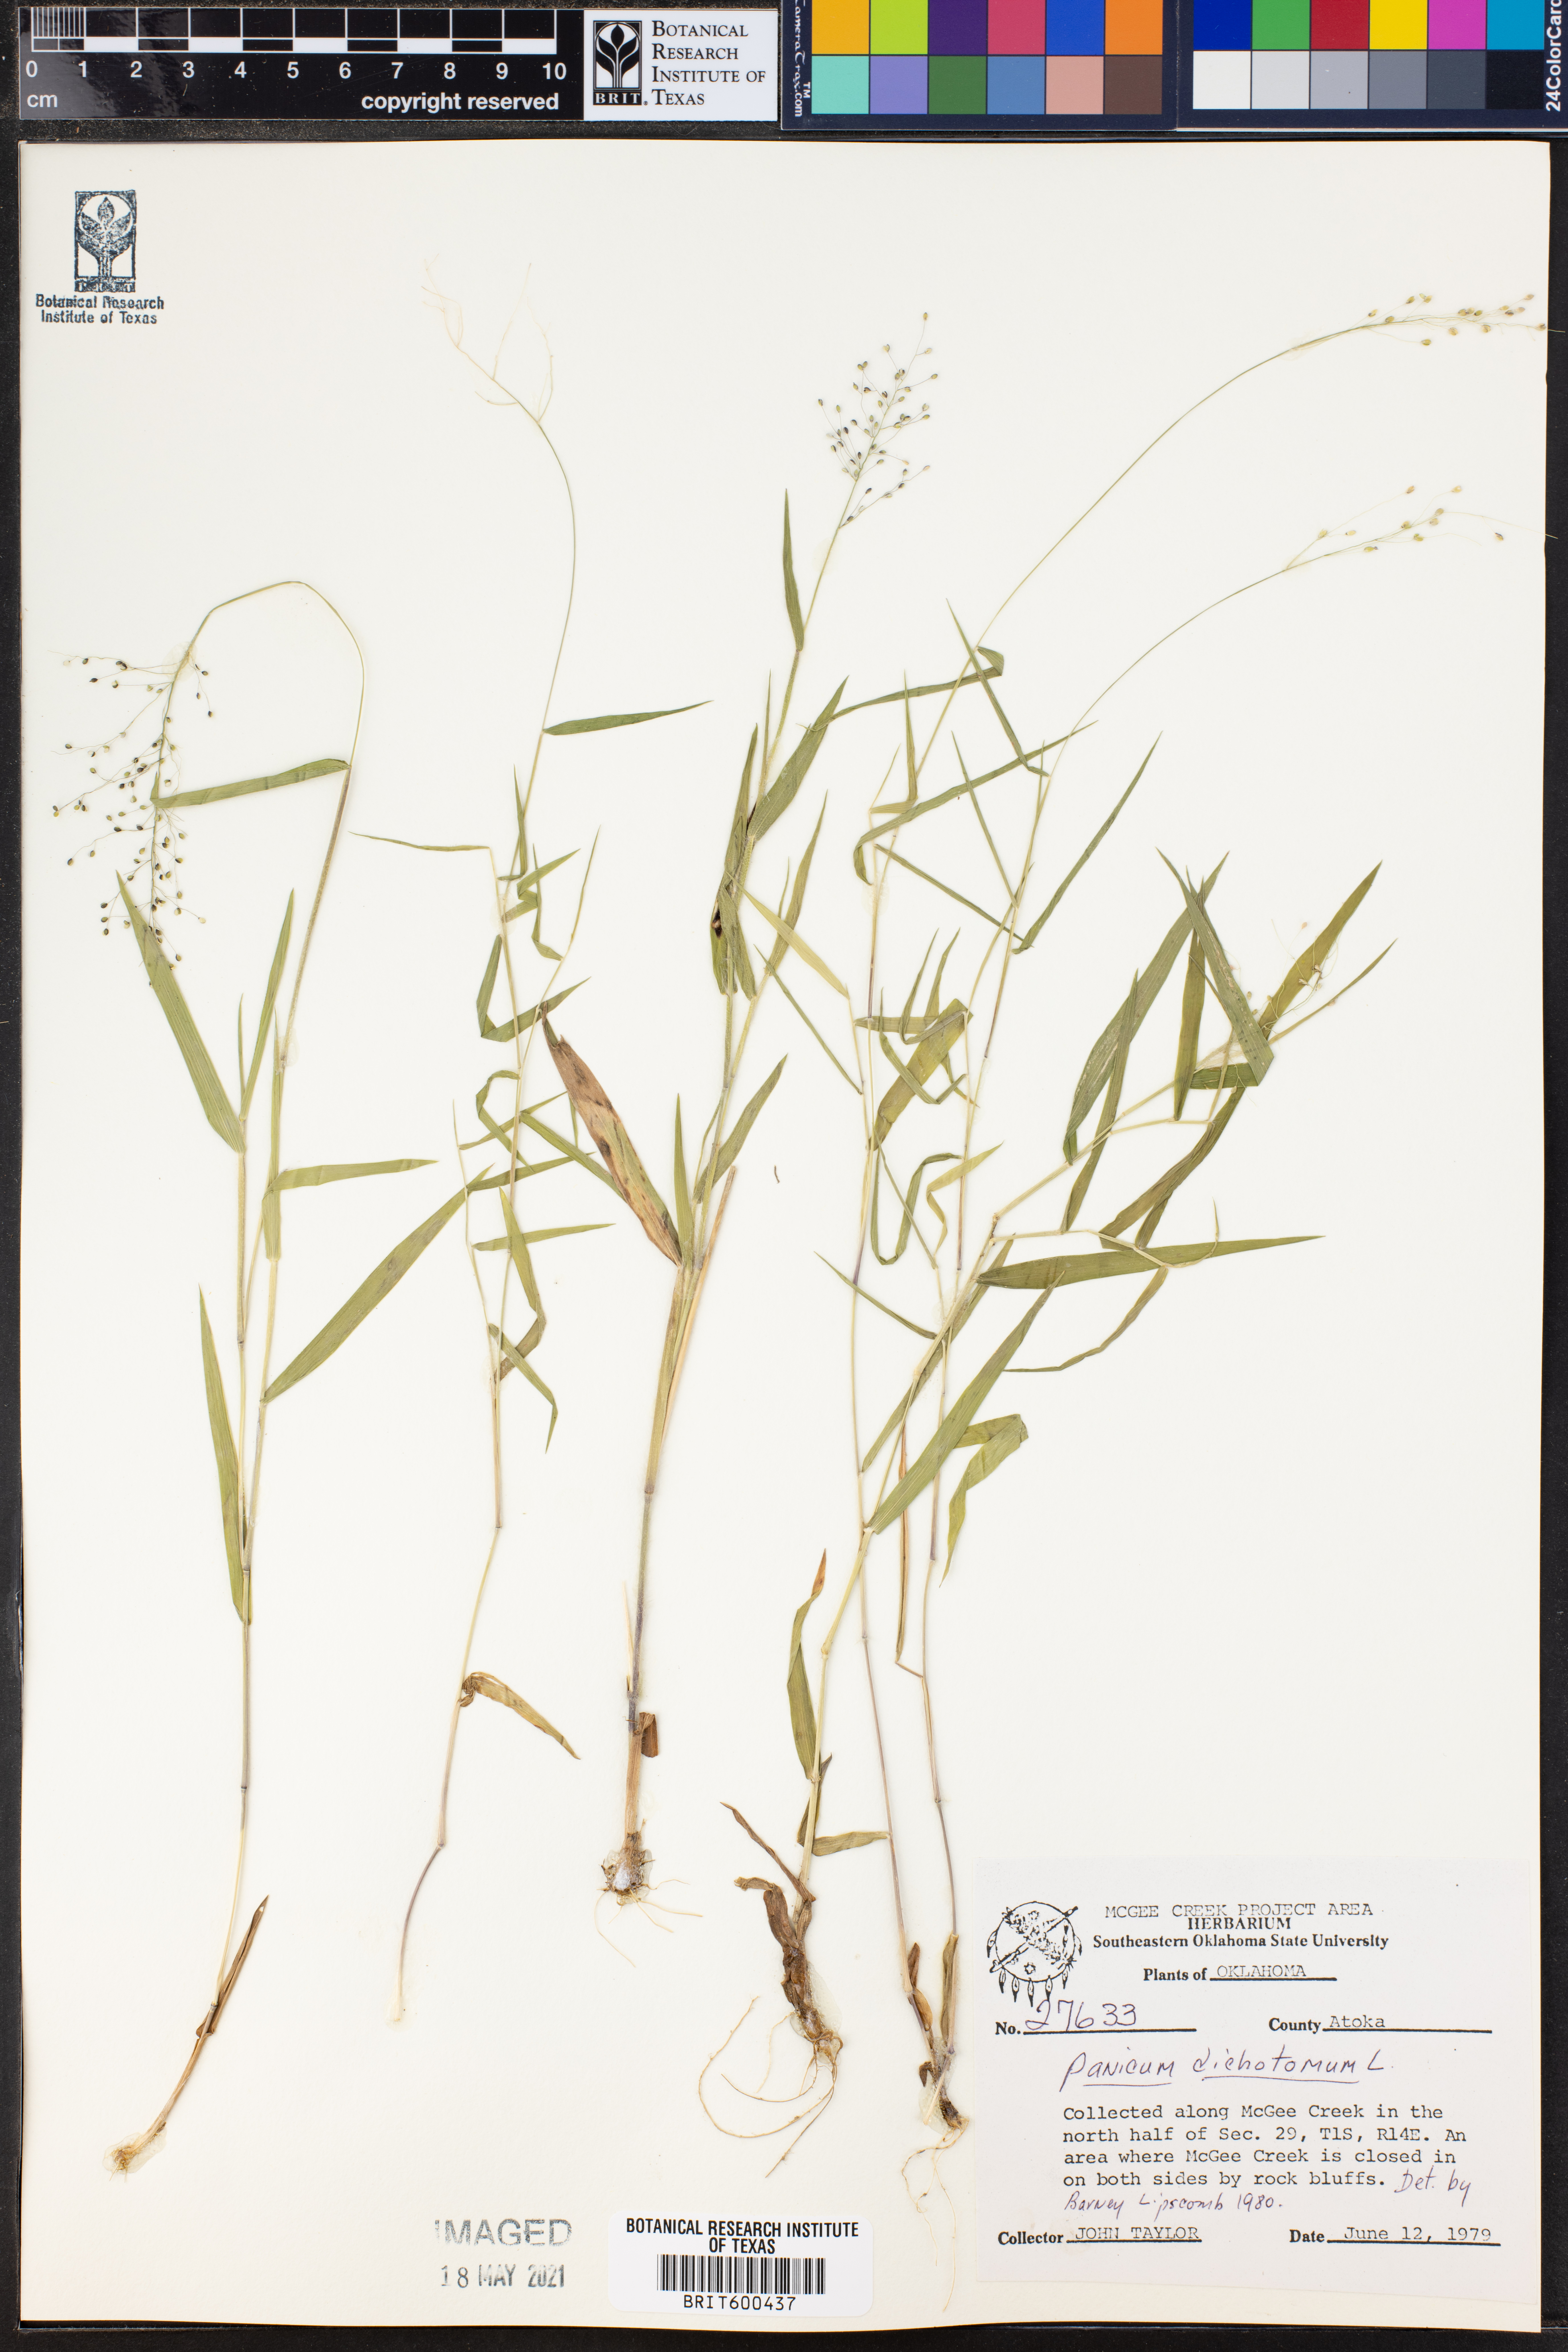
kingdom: Plantae
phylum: Tracheophyta
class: Liliopsida
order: Poales
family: Poaceae
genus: Dichanthelium
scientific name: Dichanthelium dichotomum
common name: Cypress panicgrass
